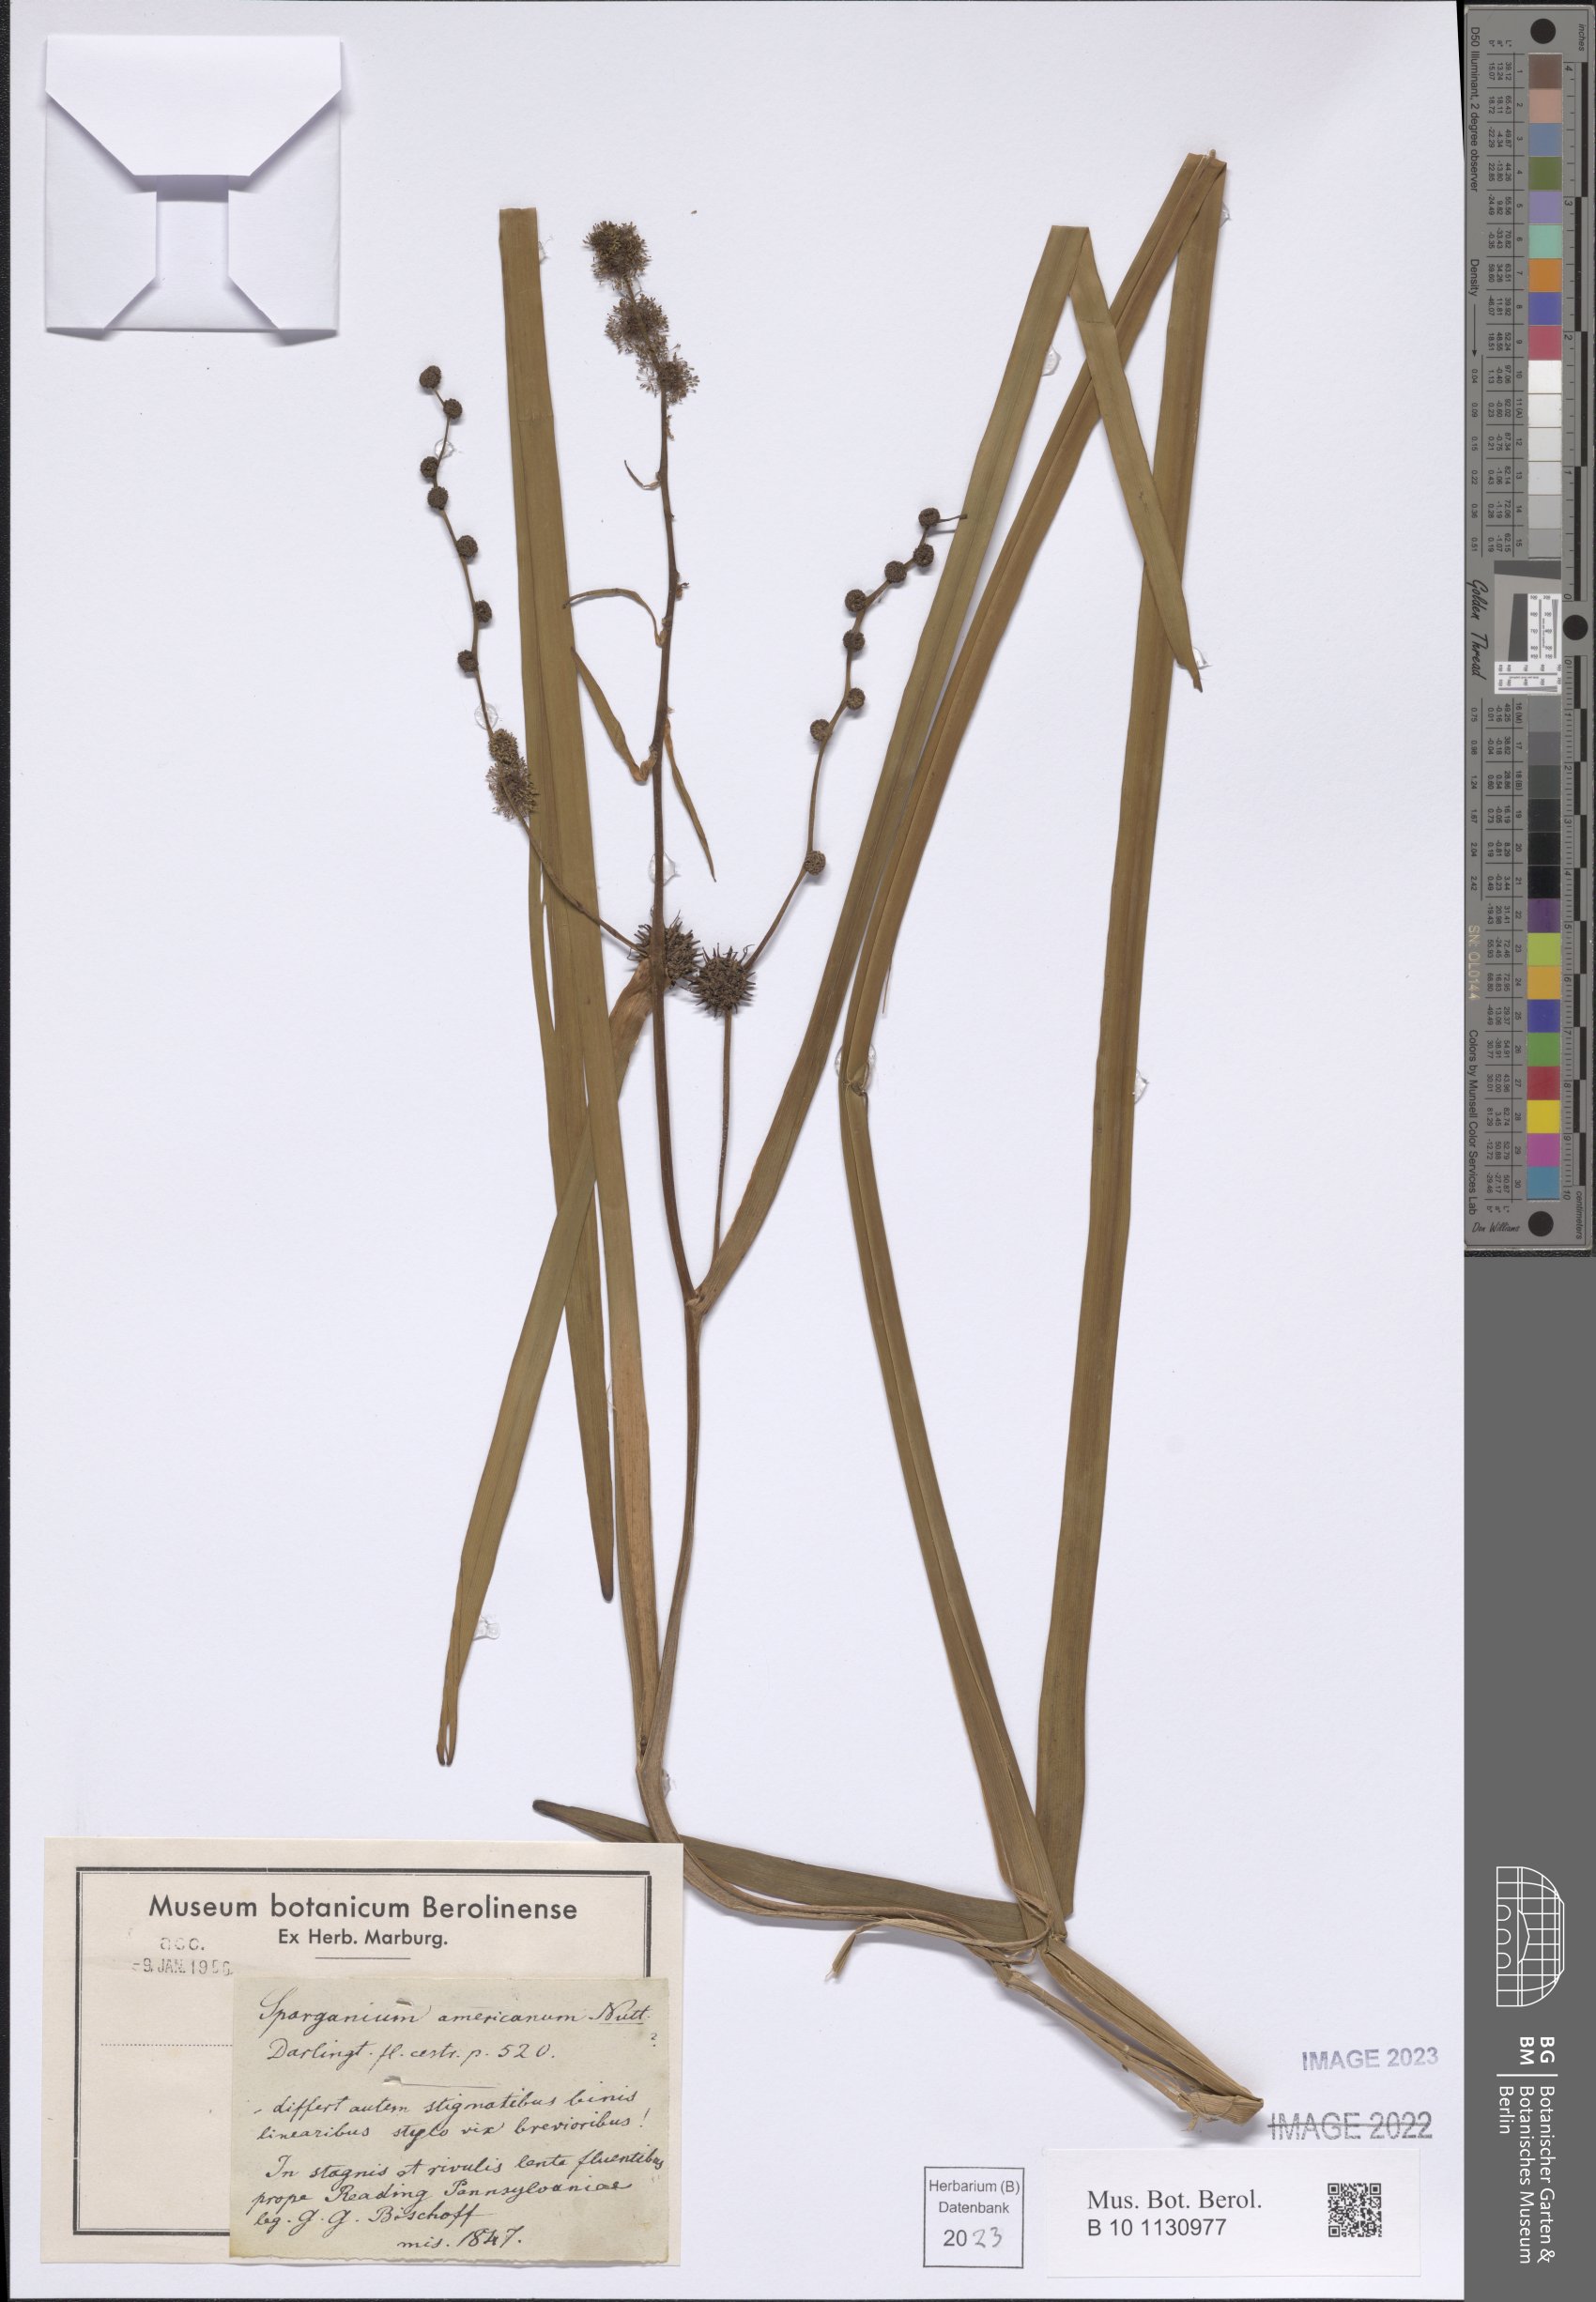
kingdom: Plantae
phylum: Tracheophyta
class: Liliopsida
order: Poales
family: Typhaceae
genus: Sparganium
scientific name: Sparganium americanum
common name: American burreed
